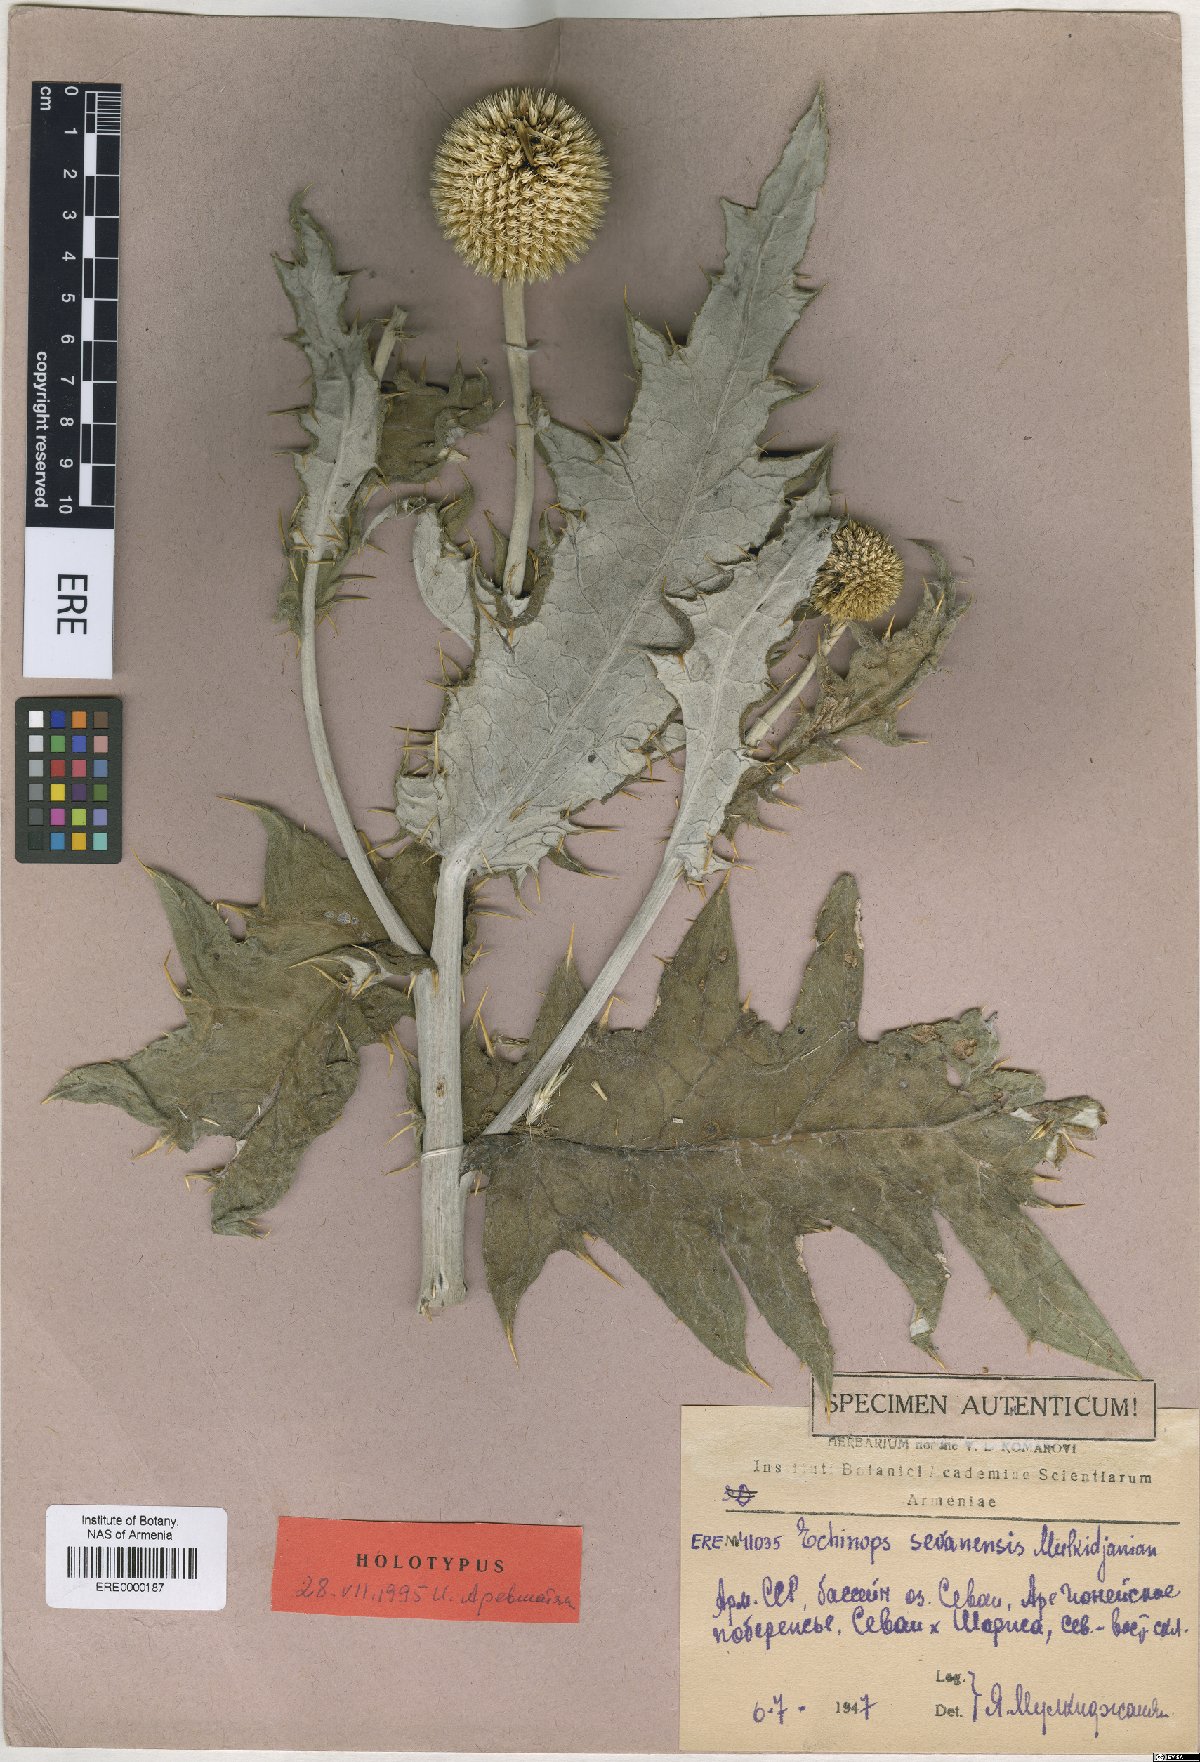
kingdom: Plantae
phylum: Tracheophyta
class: Magnoliopsida
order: Asterales
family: Asteraceae
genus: Echinops
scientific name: Echinops transcaucasicus
